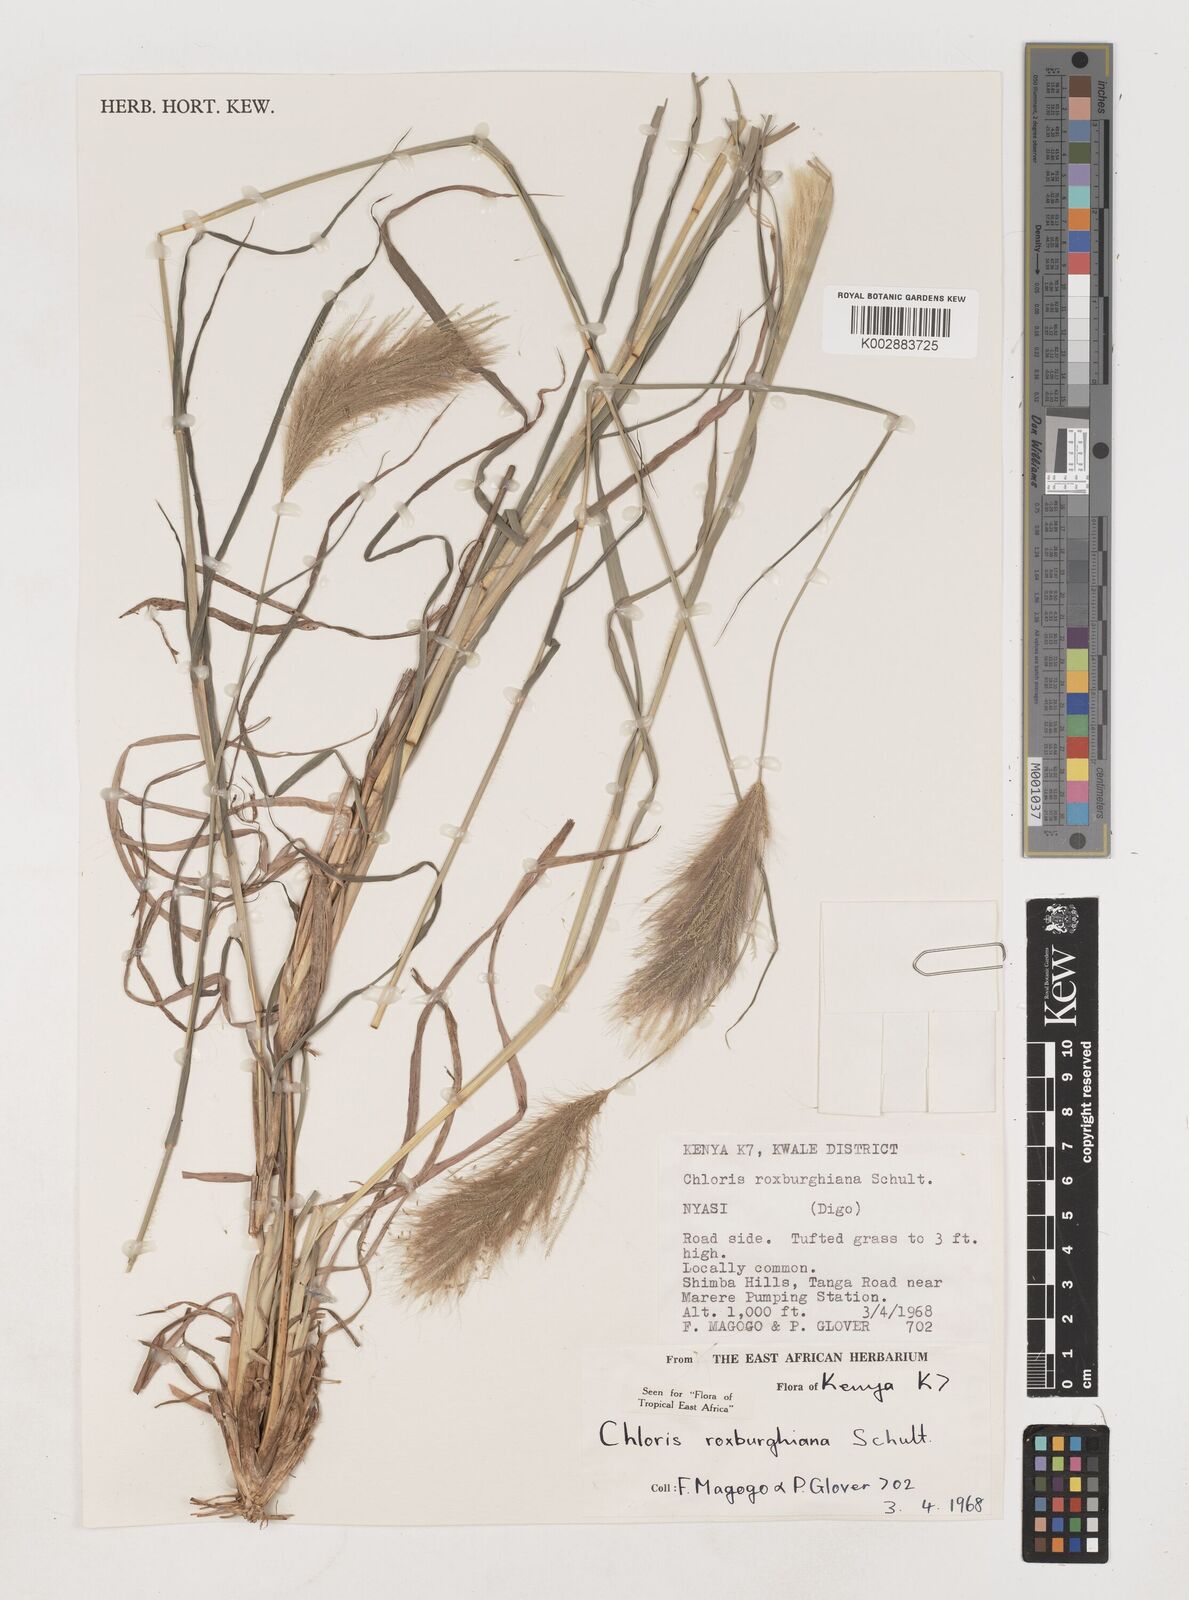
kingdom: Plantae
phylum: Tracheophyta
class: Liliopsida
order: Poales
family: Poaceae
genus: Tetrapogon
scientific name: Tetrapogon roxburghiana
